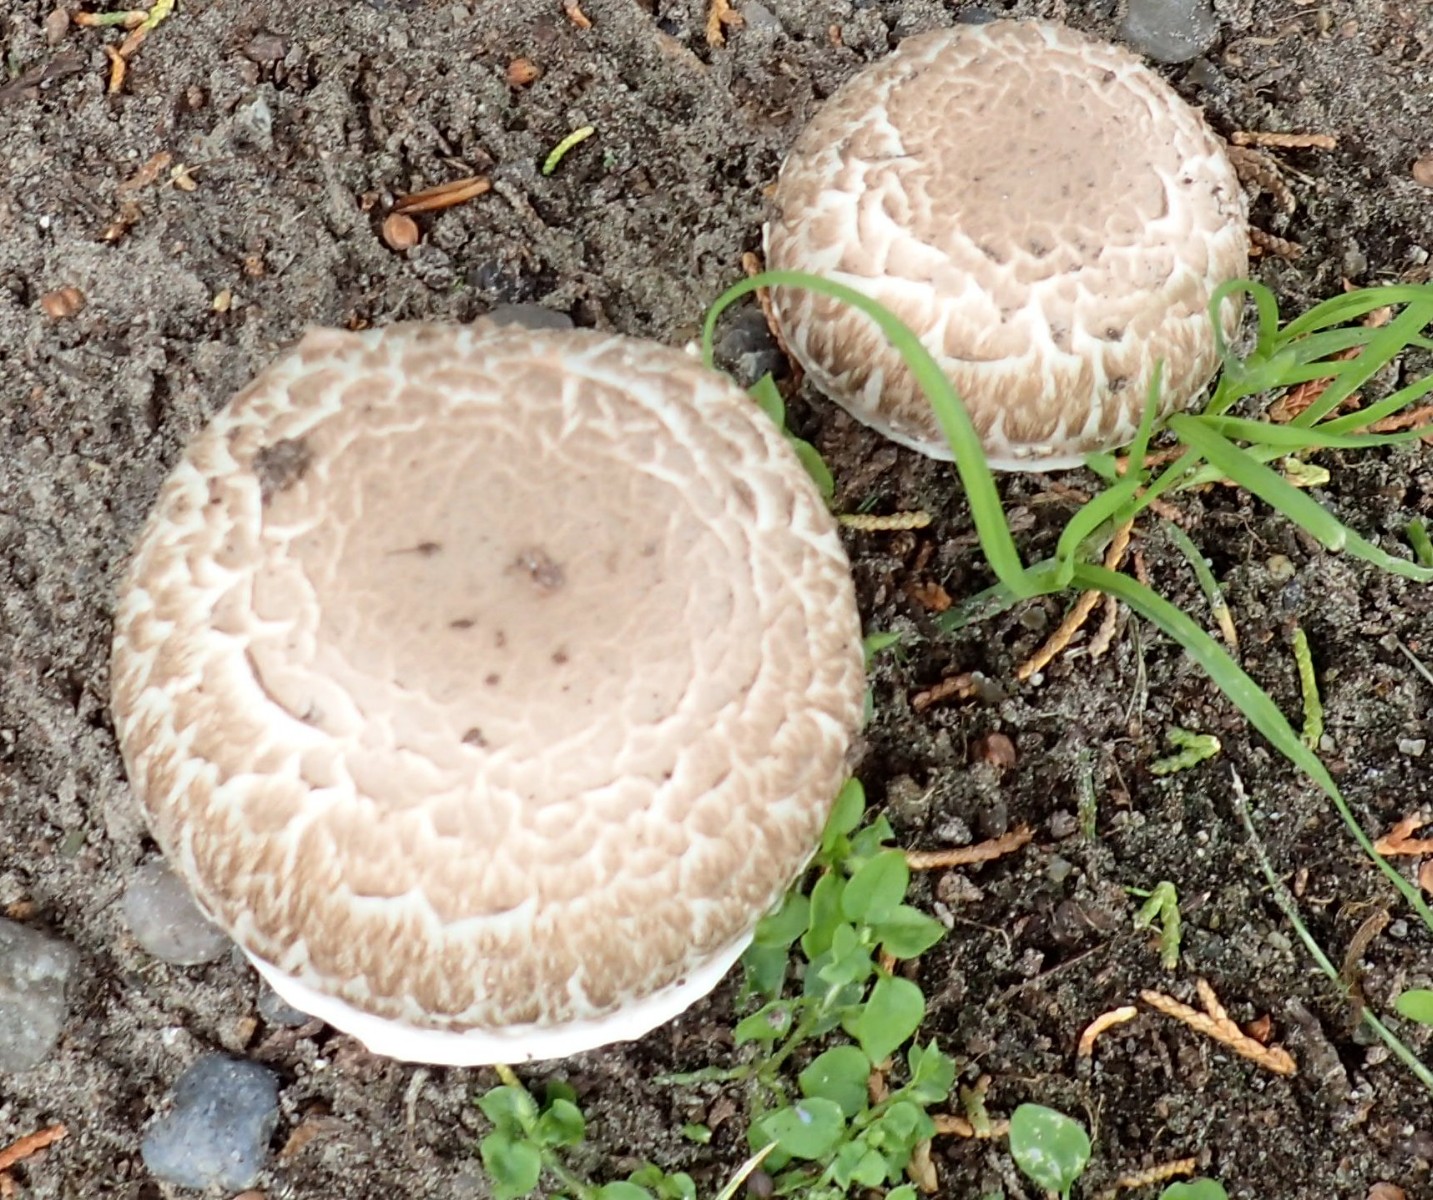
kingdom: Fungi
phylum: Basidiomycota
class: Agaricomycetes
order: Agaricales
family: Agaricaceae
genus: Agaricus
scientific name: Agaricus subfloccosus
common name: randskællet champignon
